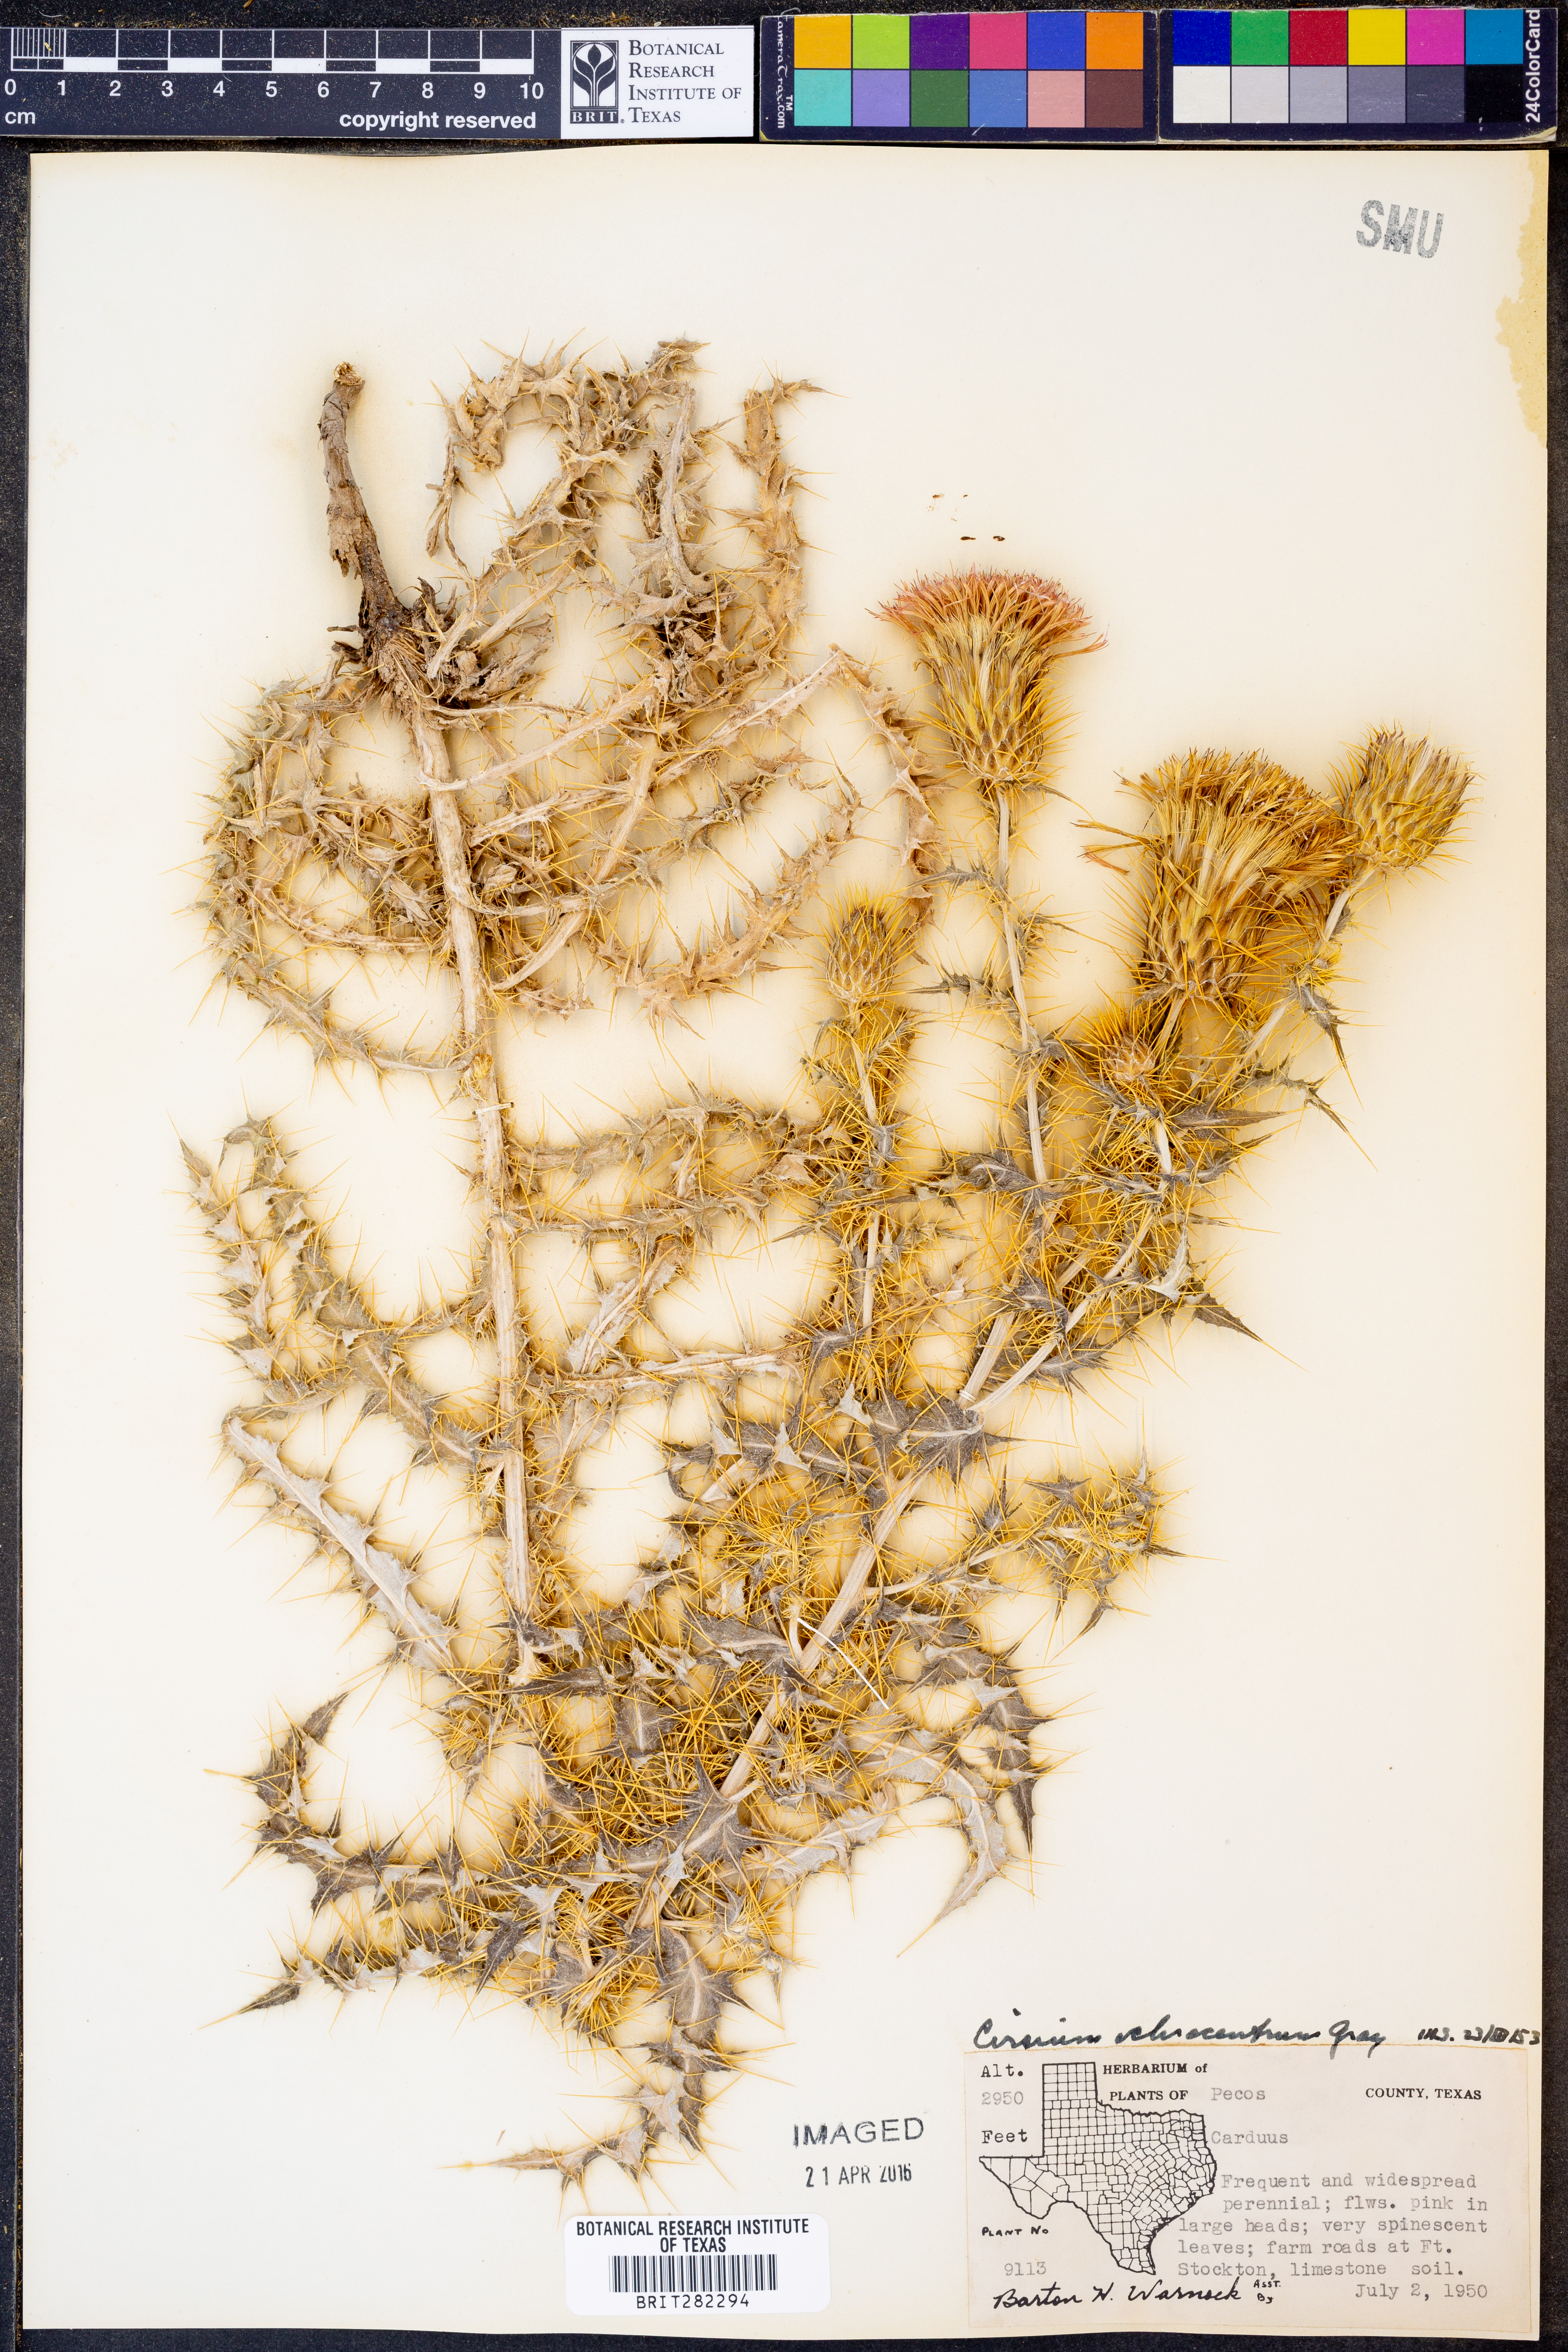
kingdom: Plantae
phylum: Tracheophyta
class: Magnoliopsida
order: Asterales
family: Asteraceae
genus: Cirsium
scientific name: Cirsium ochrocentrum
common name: Yellow-spine thistle
